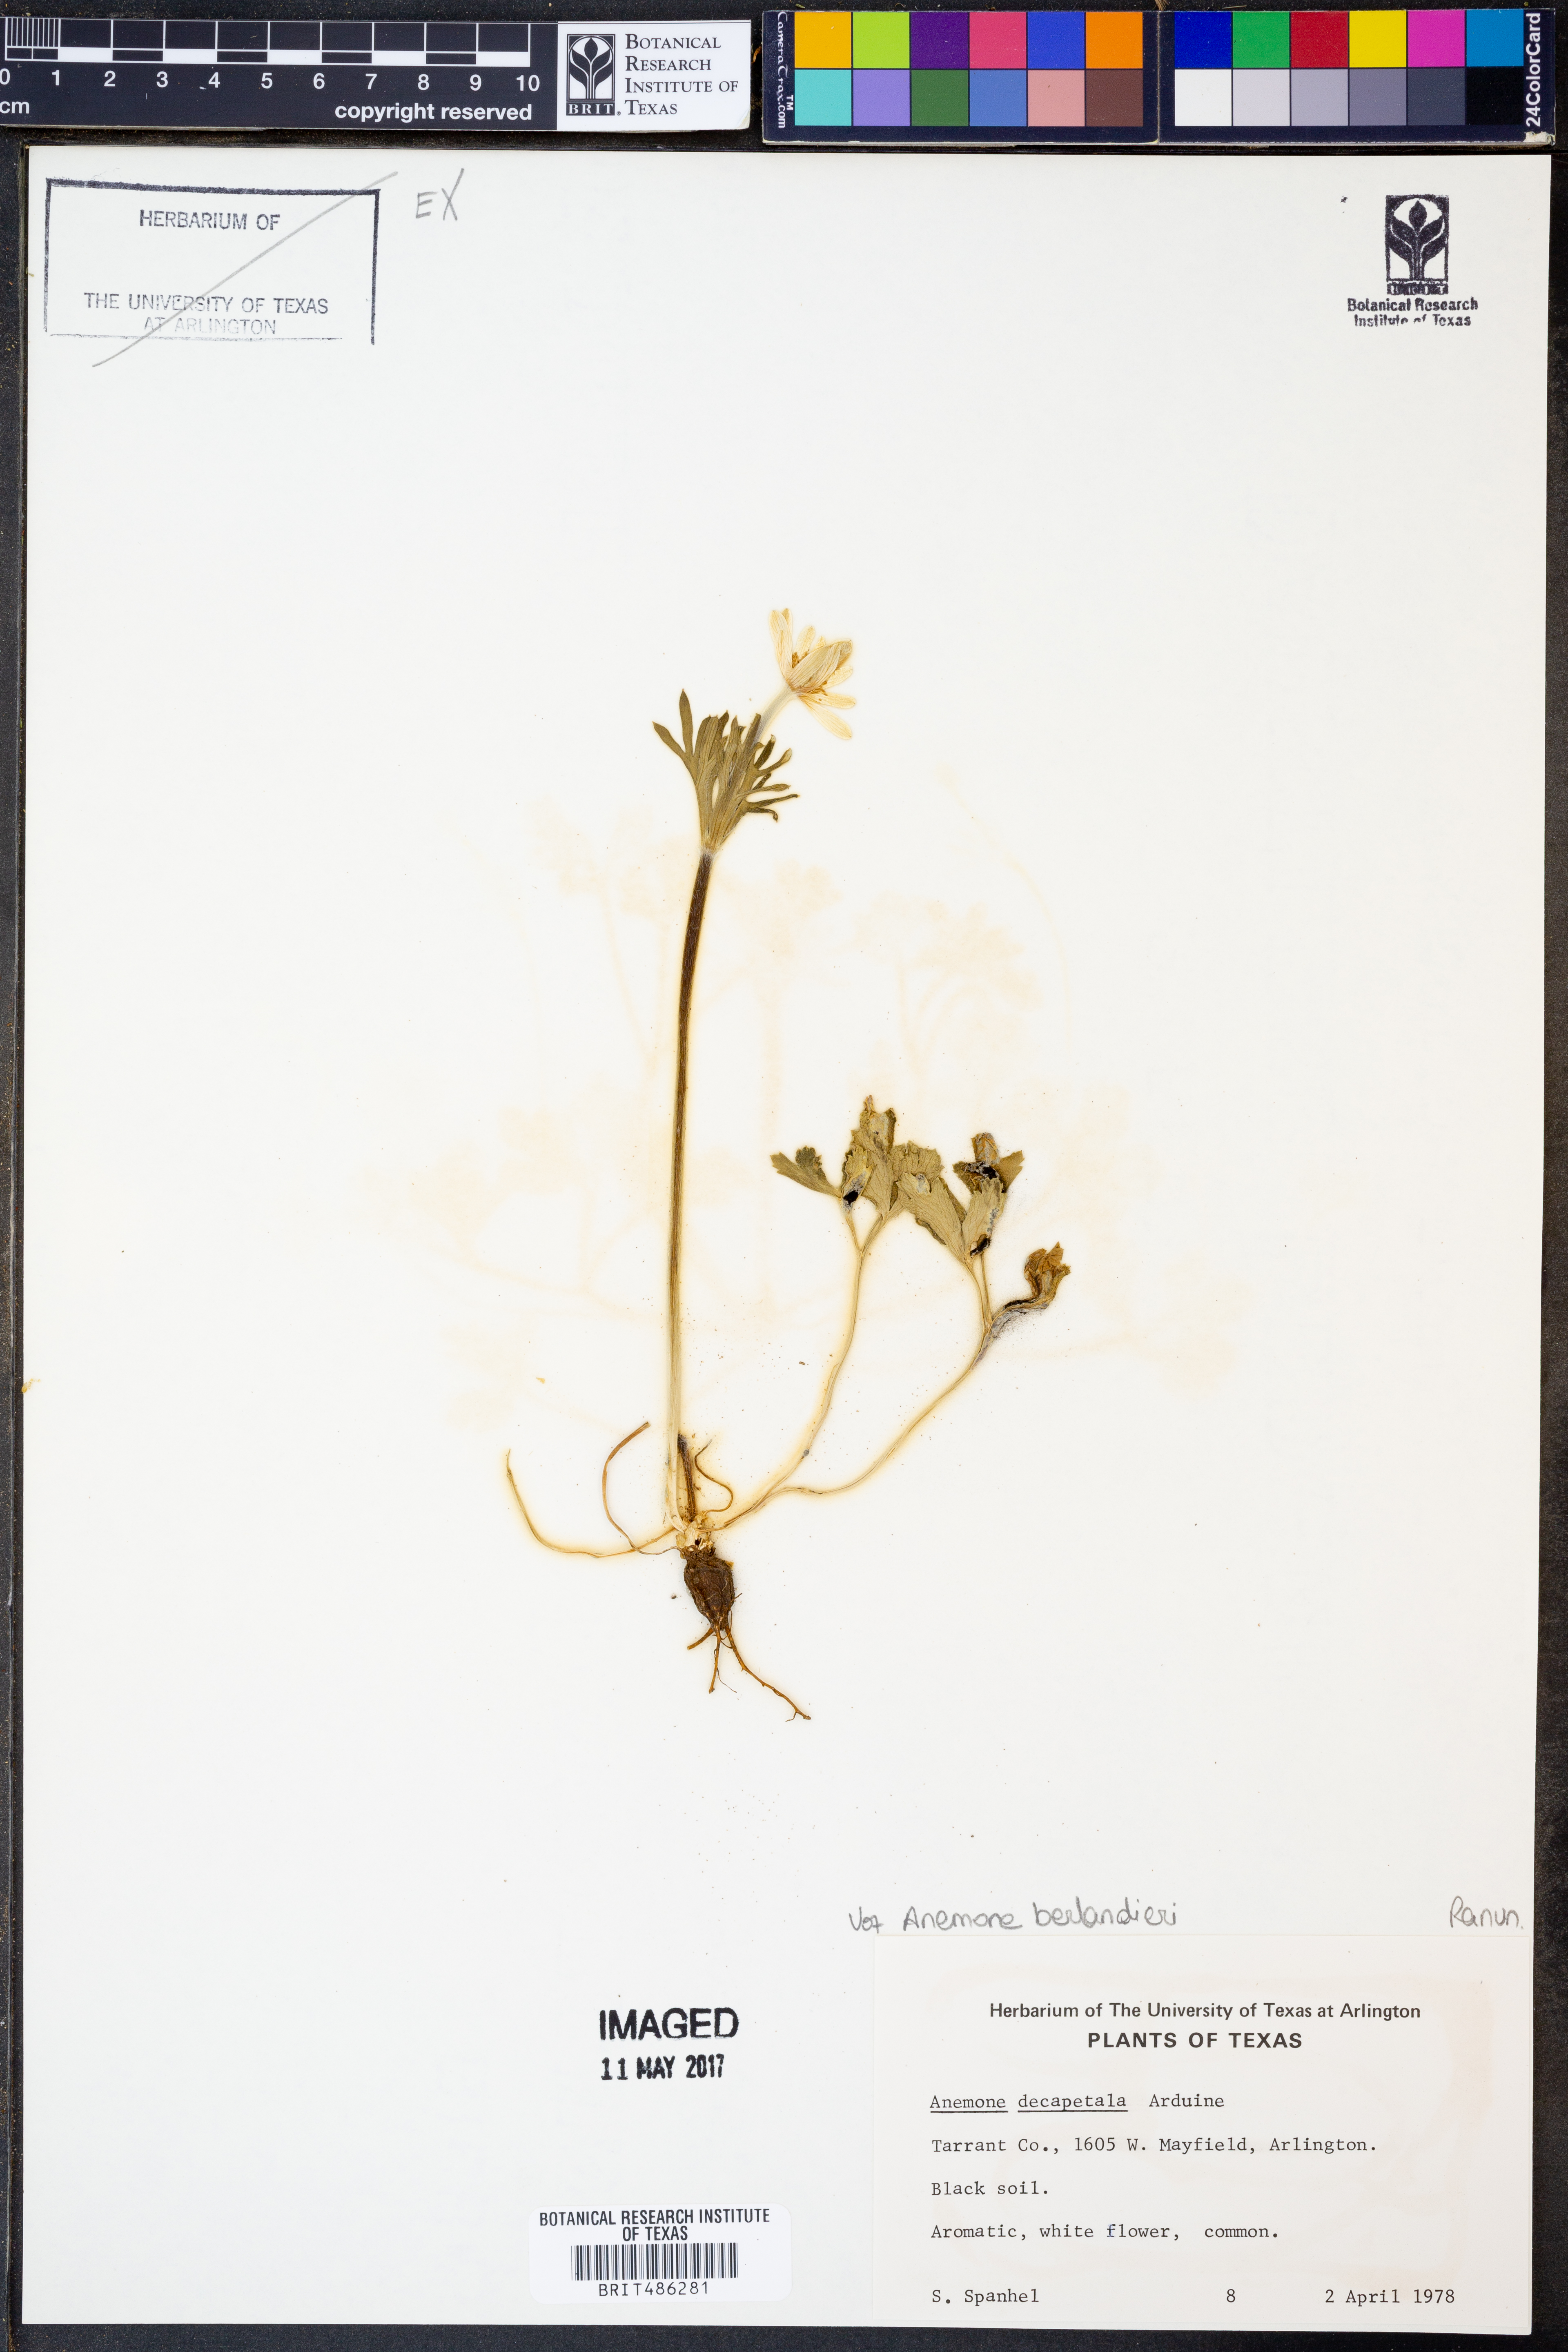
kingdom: Plantae
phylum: Tracheophyta
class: Magnoliopsida
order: Ranunculales
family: Ranunculaceae
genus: Anemone
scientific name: Anemone berlandieri
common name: Ten-petal anemone
